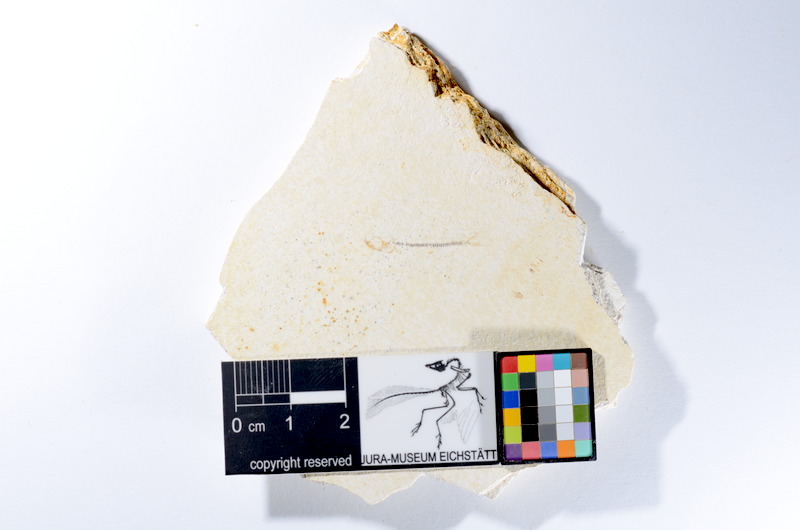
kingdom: Animalia
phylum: Chordata
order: Salmoniformes
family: Orthogonikleithridae
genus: Orthogonikleithrus
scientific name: Orthogonikleithrus hoelli
